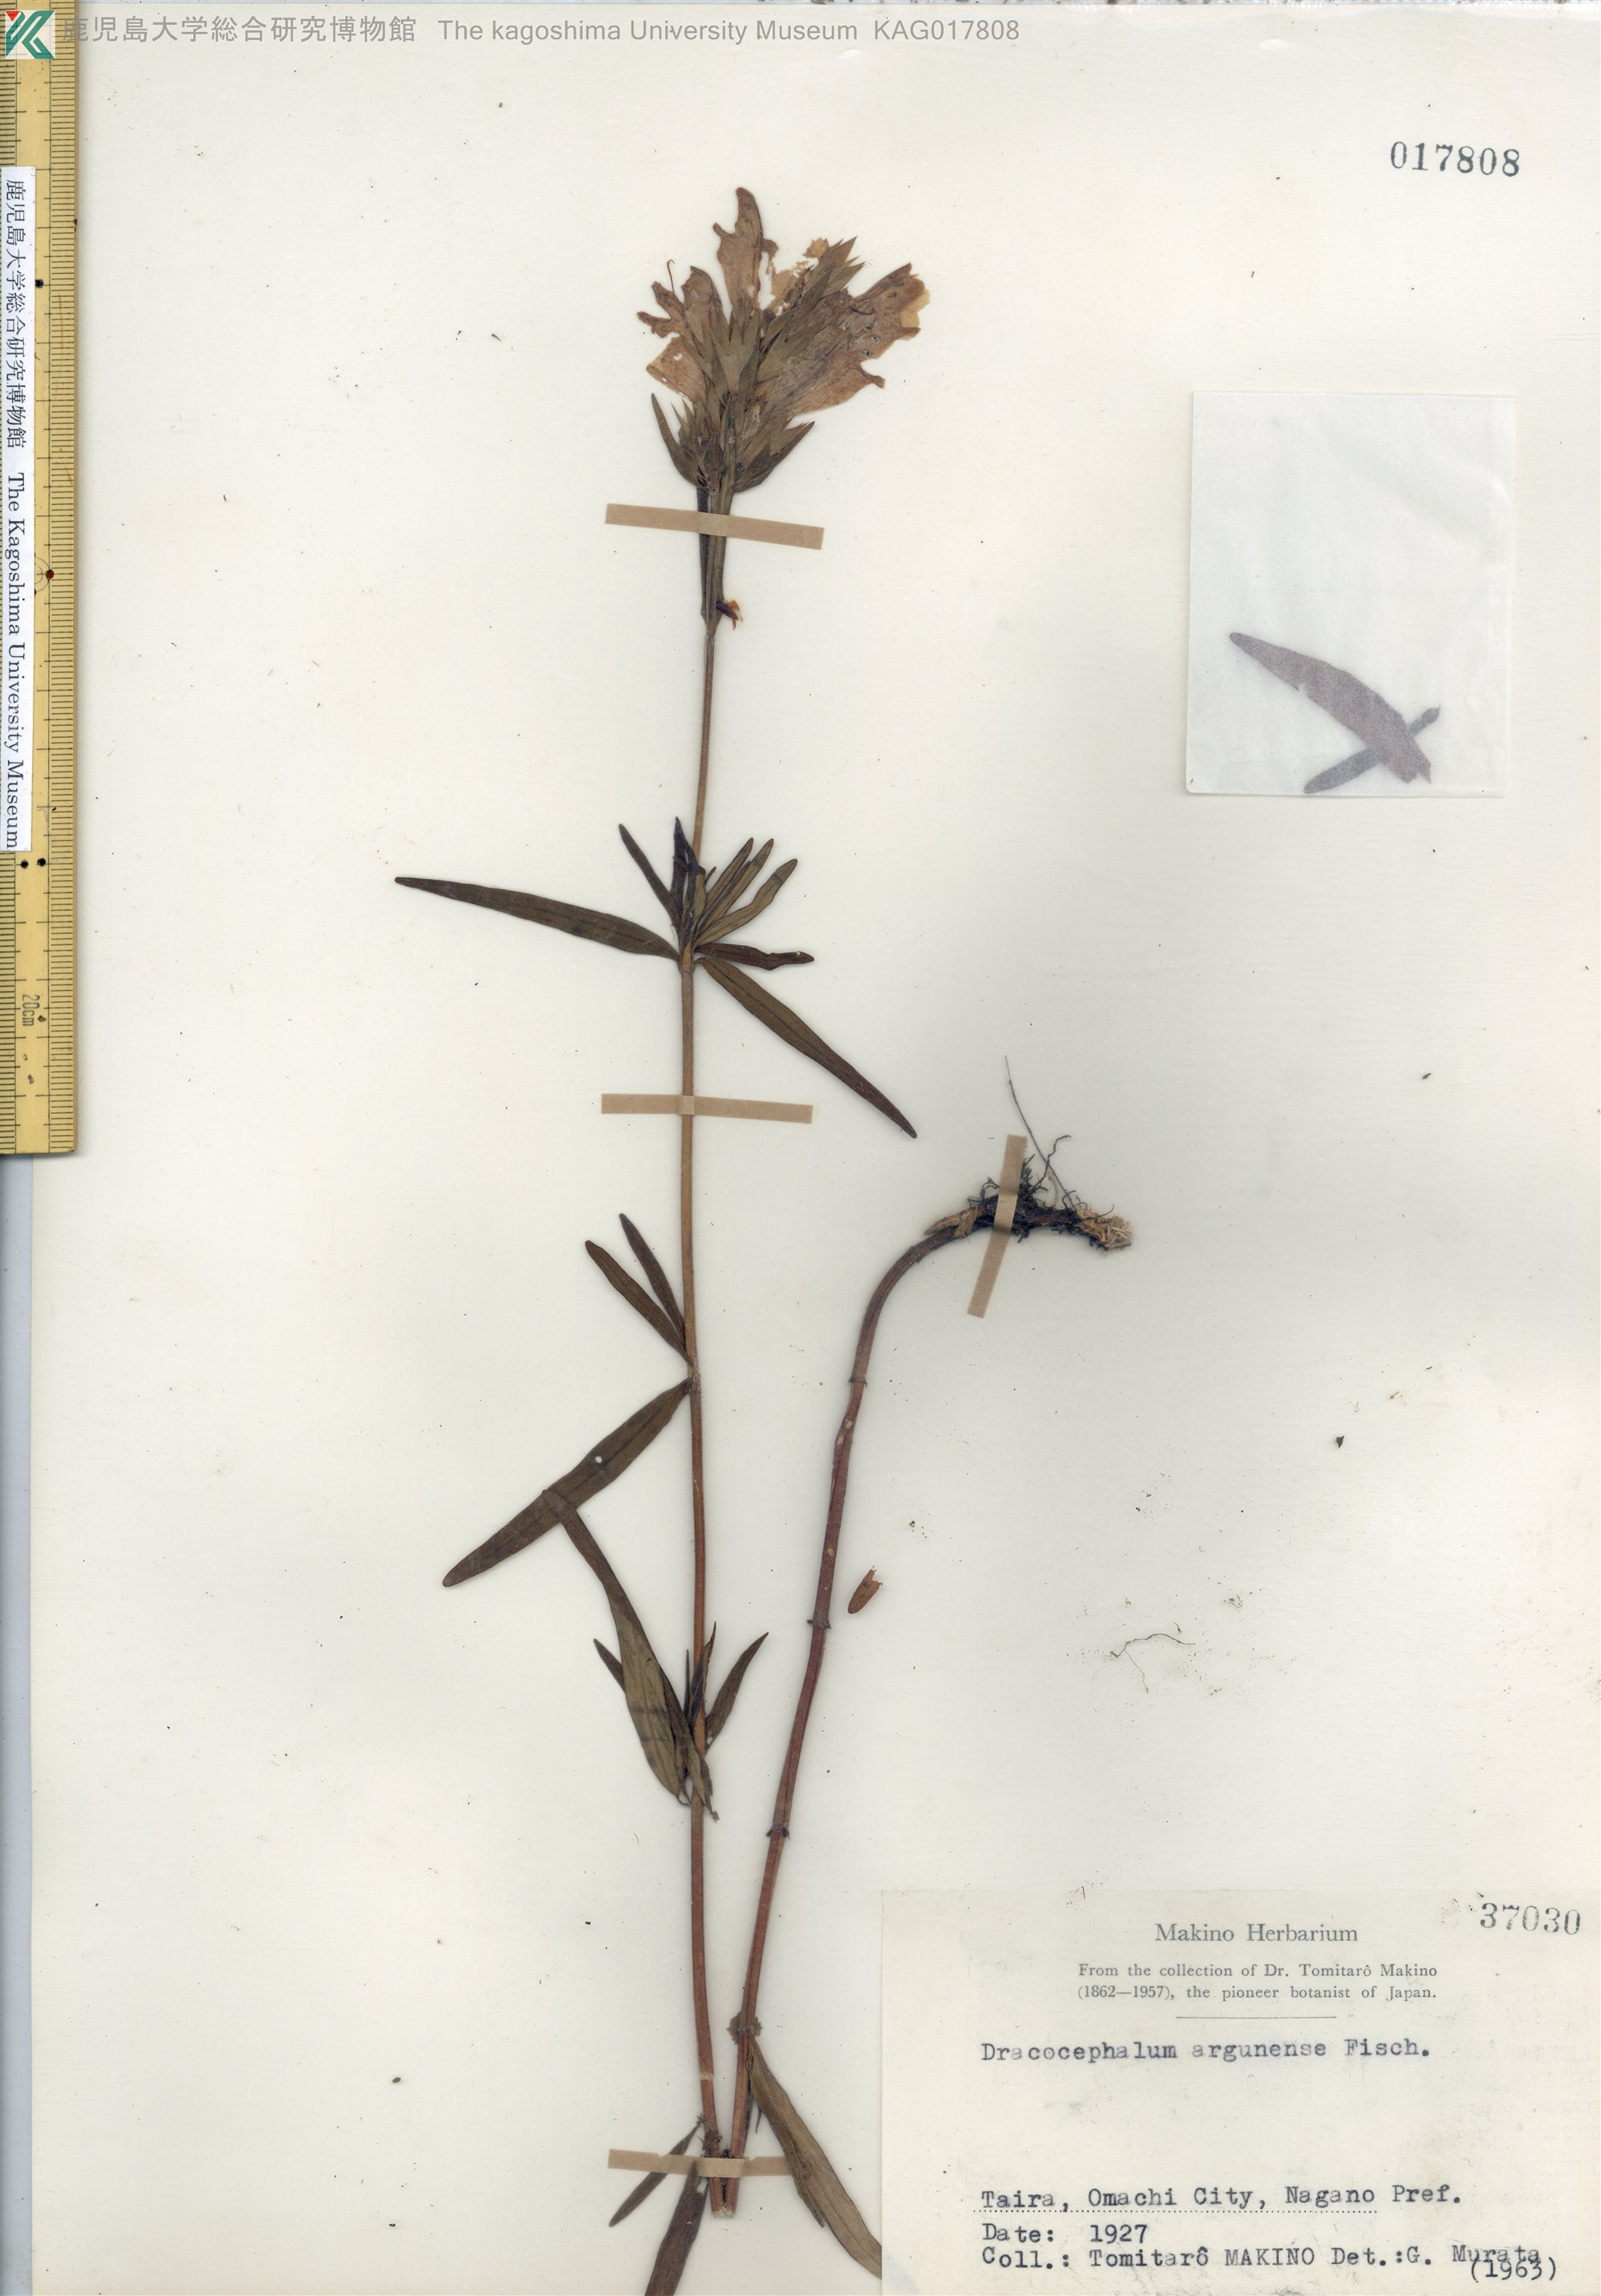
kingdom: Plantae
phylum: Tracheophyta
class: Magnoliopsida
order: Lamiales
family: Lamiaceae
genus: Dracocephalum
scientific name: Dracocephalum argunense
